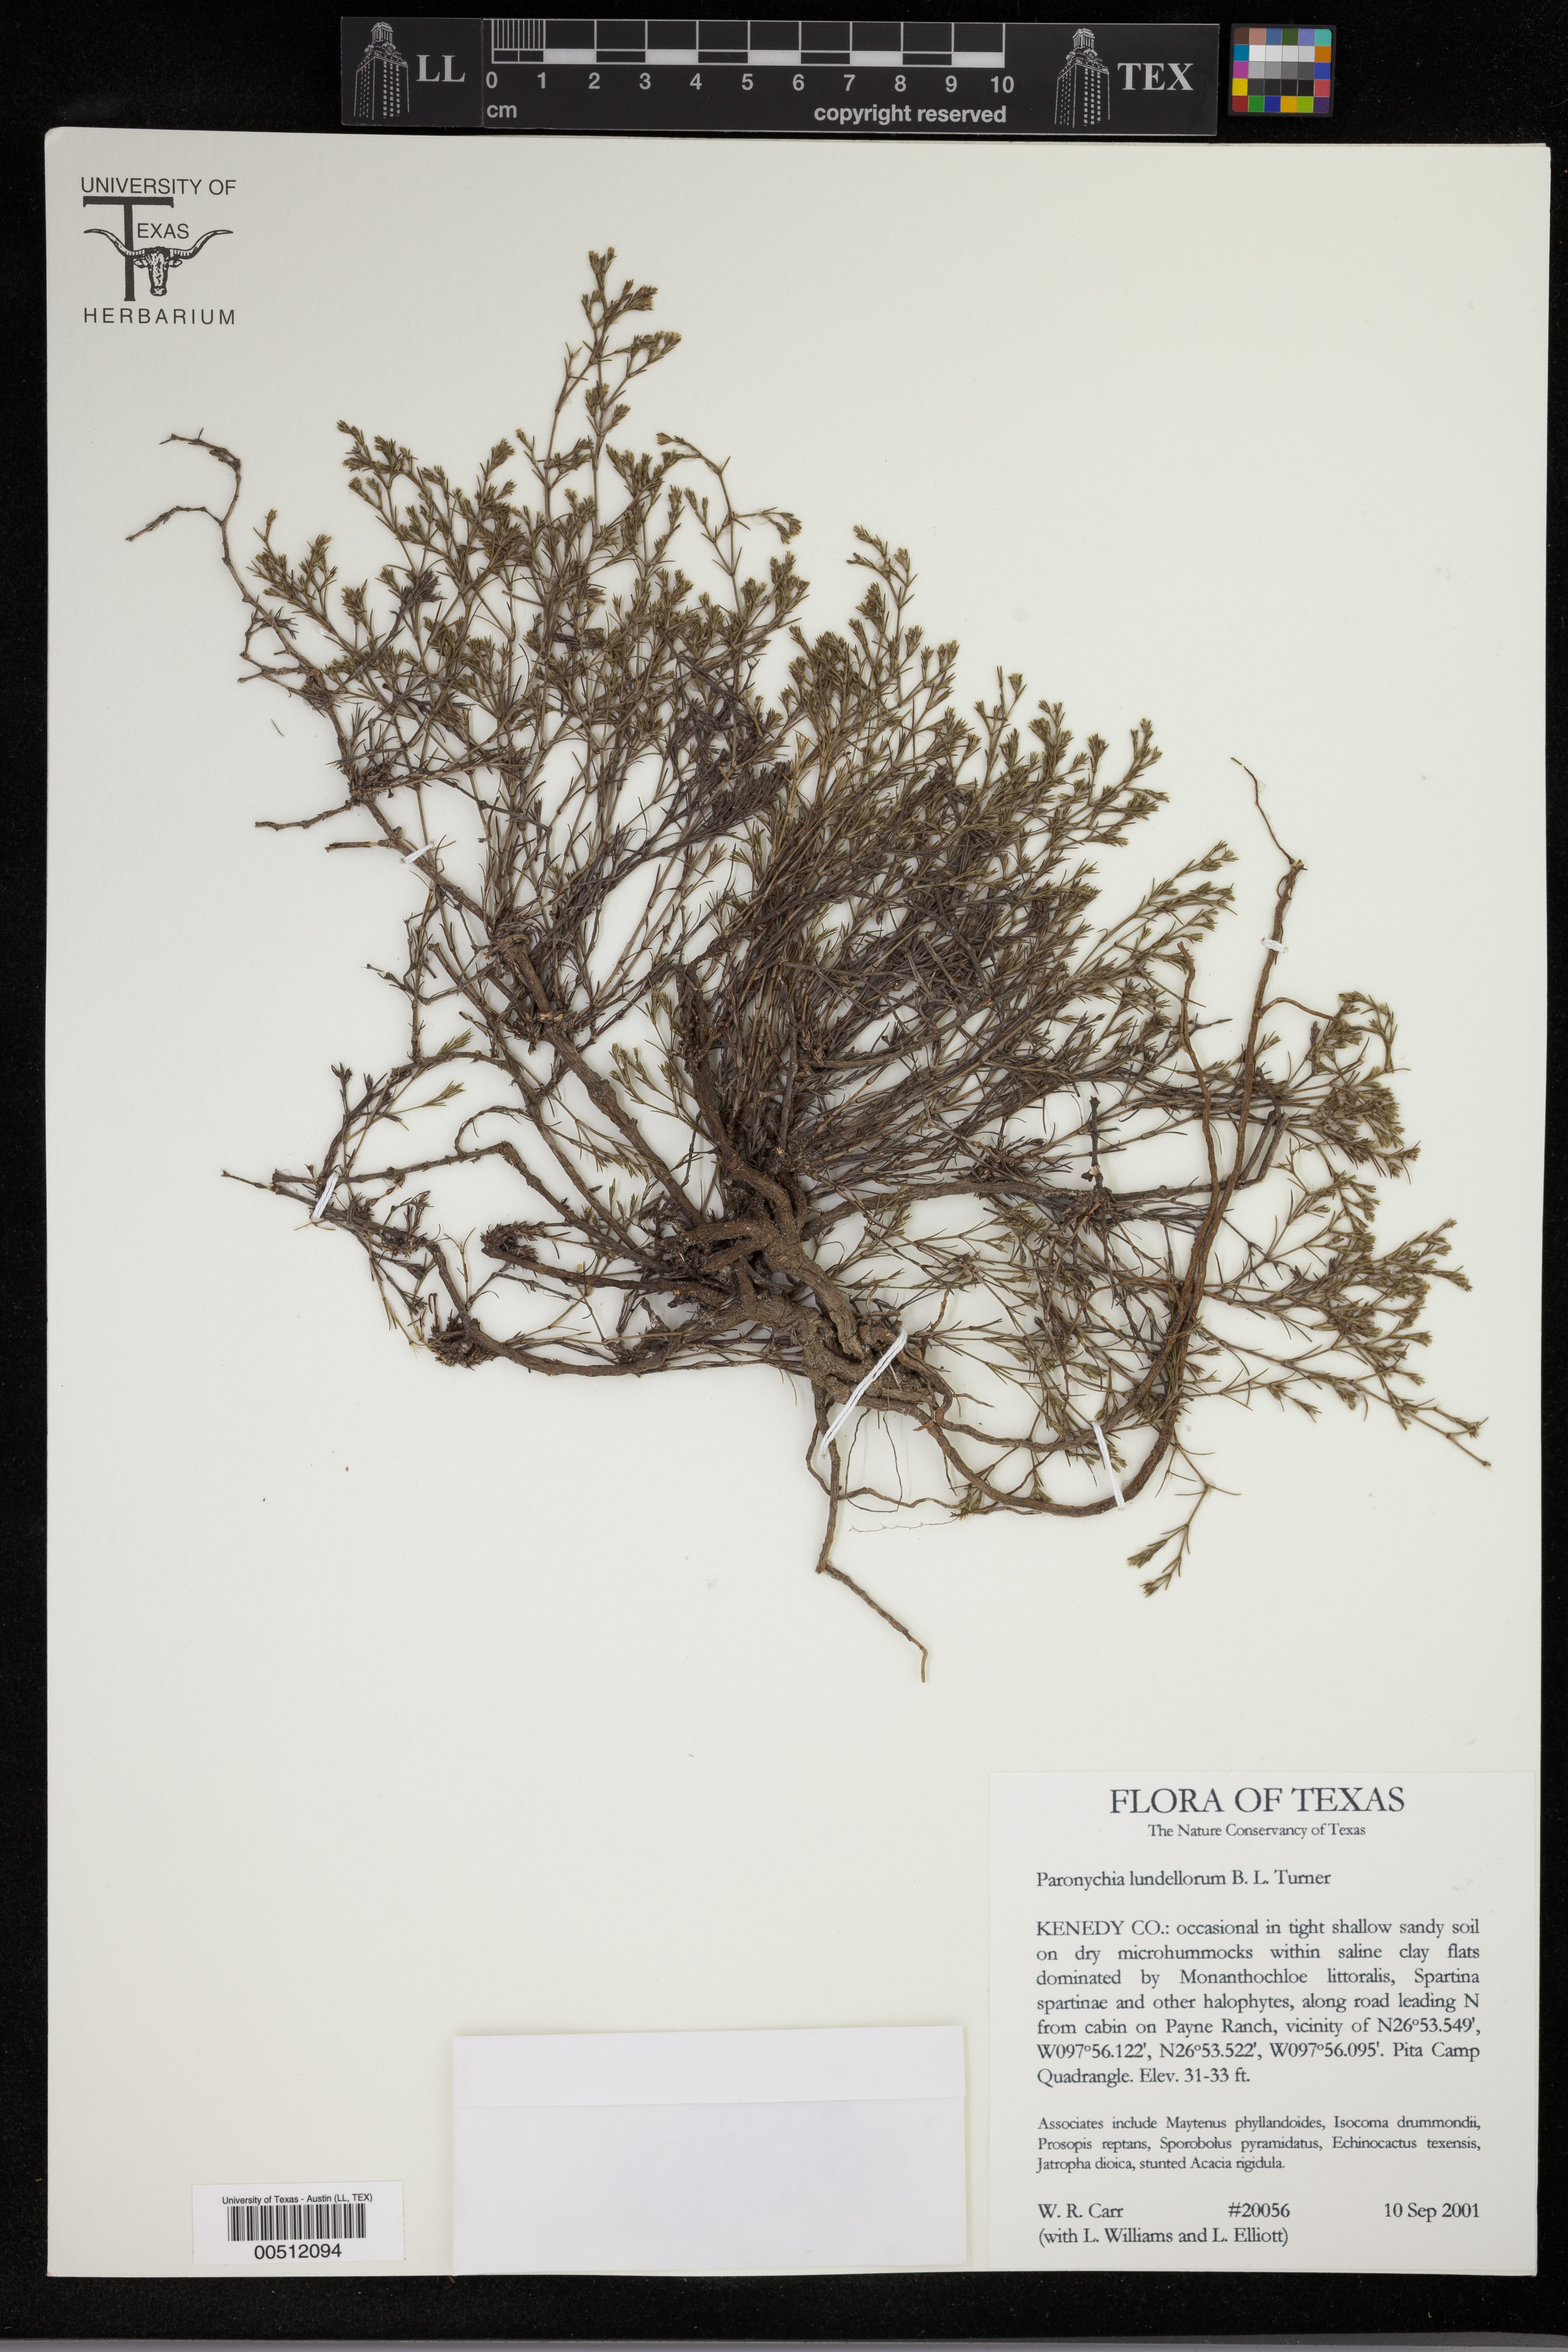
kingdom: Plantae
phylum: Tracheophyta
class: Magnoliopsida
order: Caryophyllales
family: Caryophyllaceae
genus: Paronychia
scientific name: Paronychia setacea
